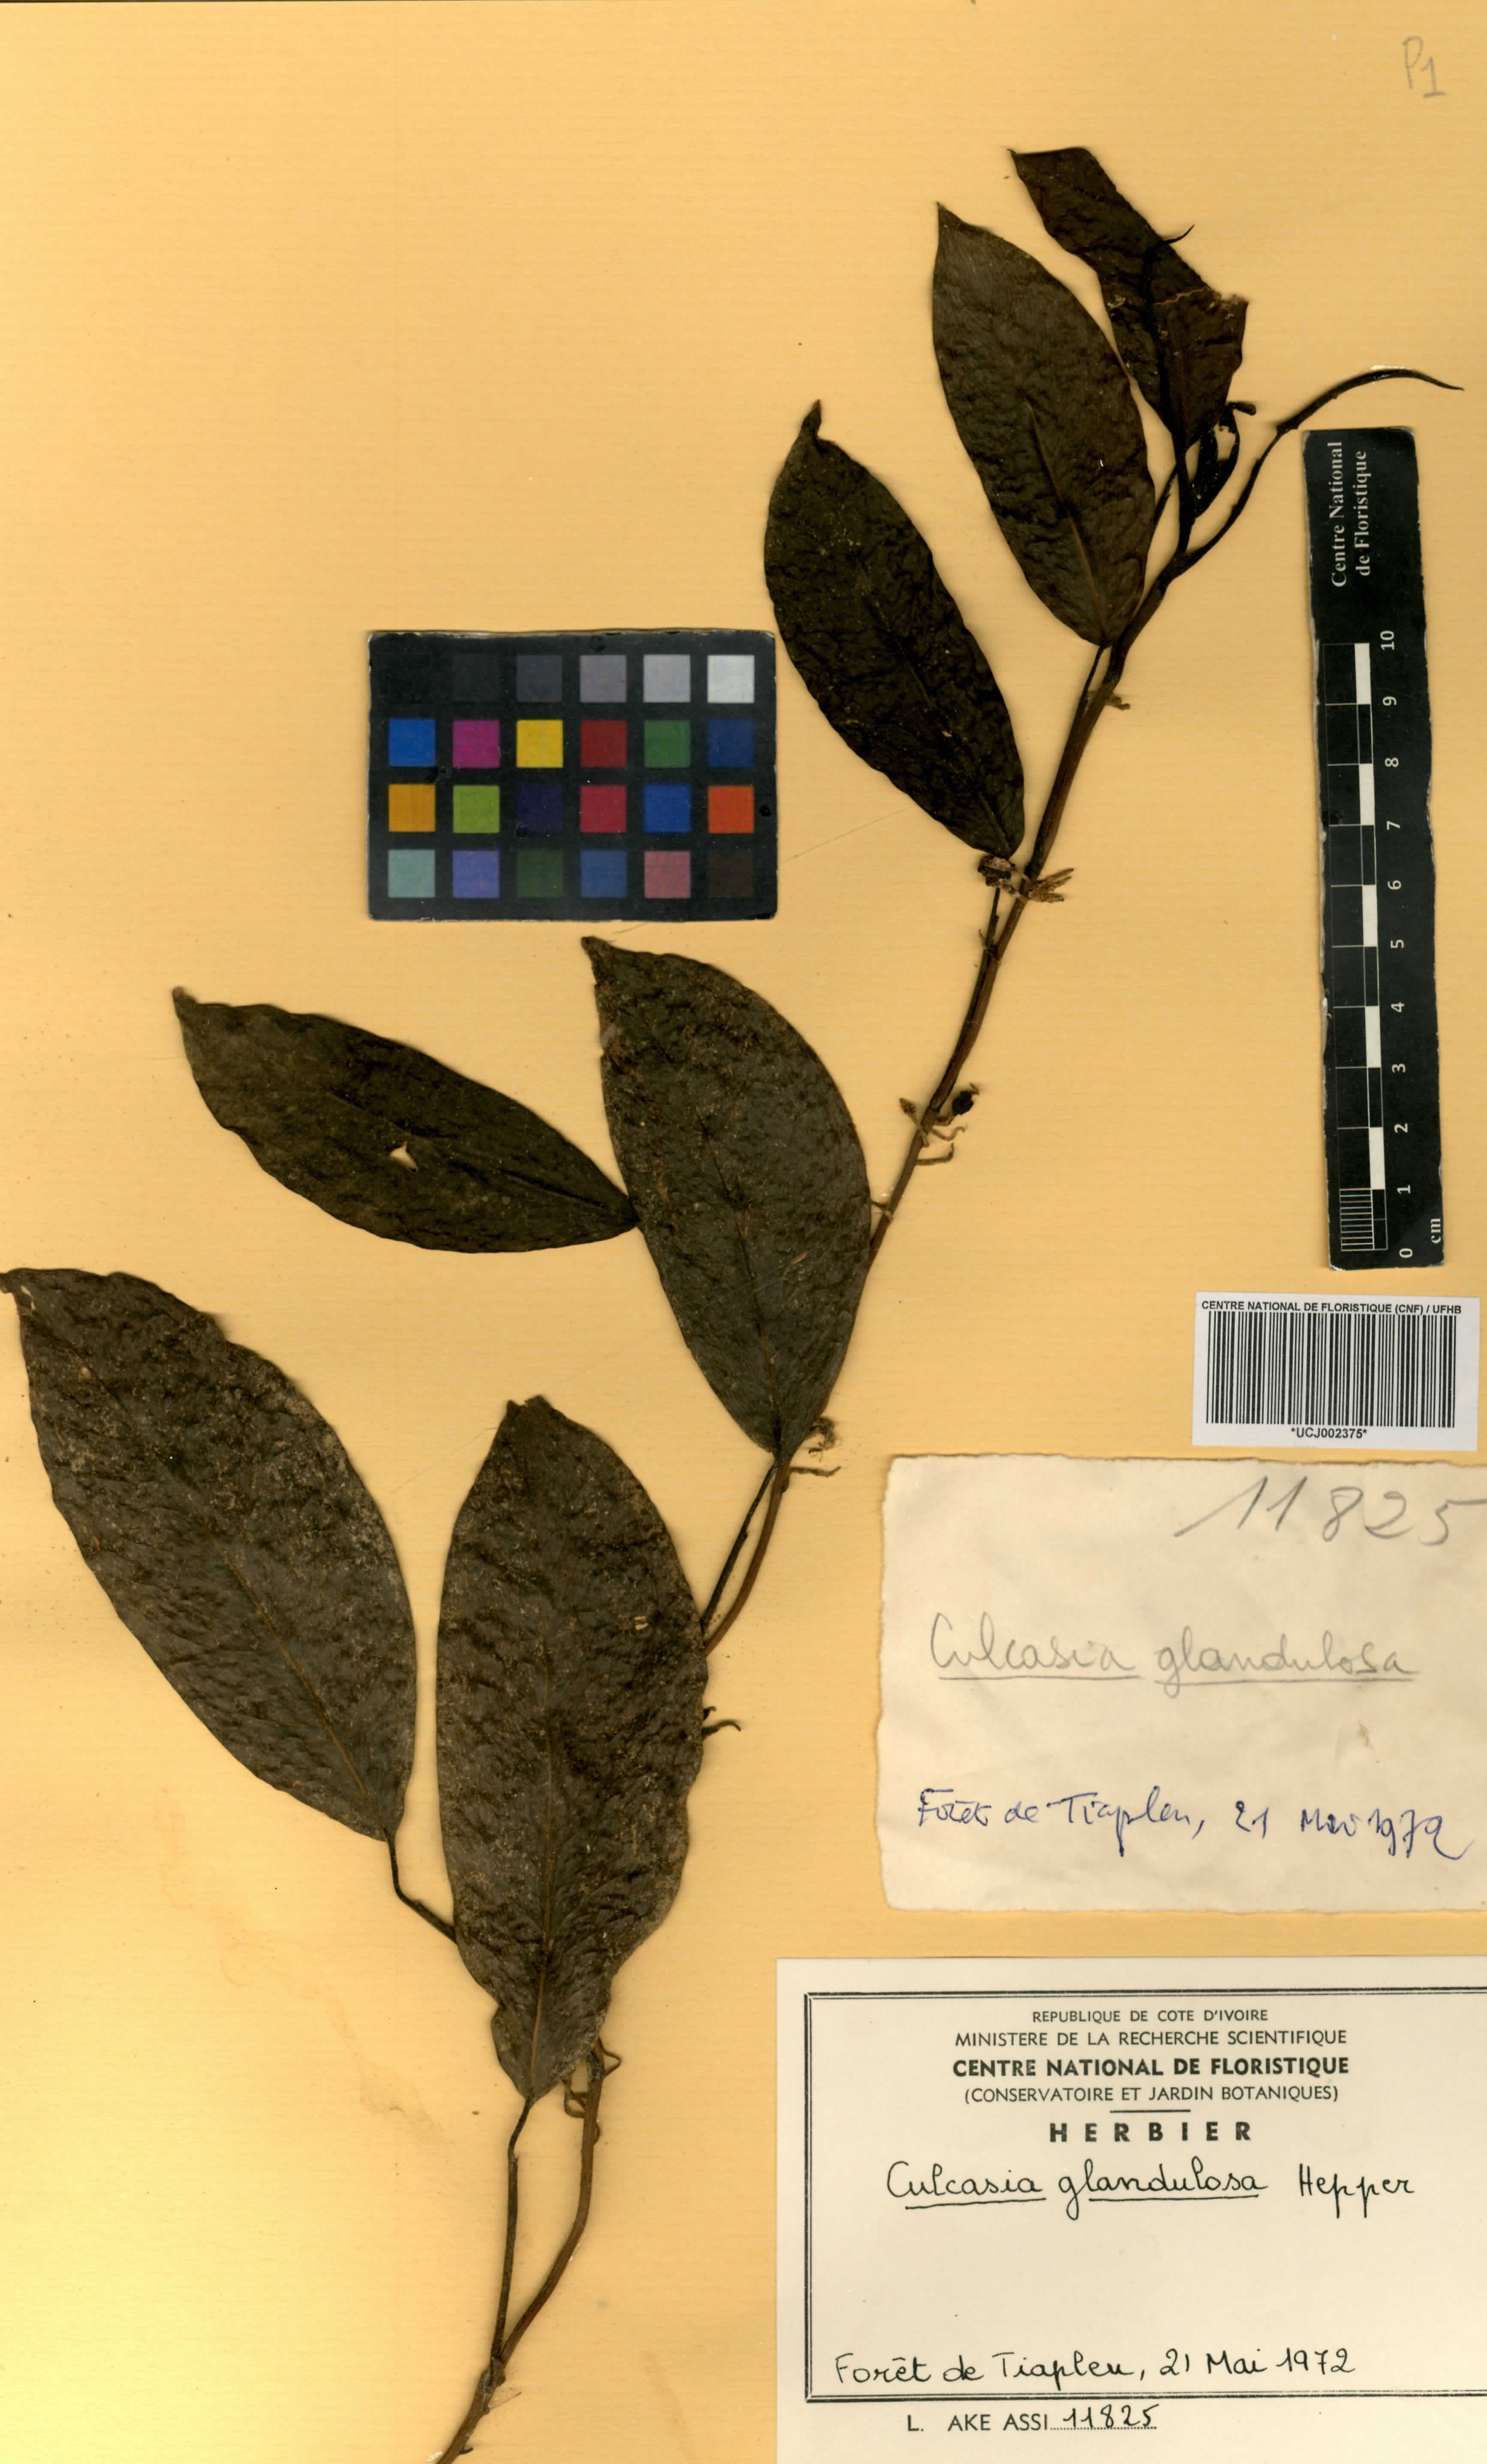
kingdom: Plantae
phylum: Tracheophyta
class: Liliopsida
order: Alismatales
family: Araceae
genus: Culcasia
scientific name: Culcasia glandulosa
